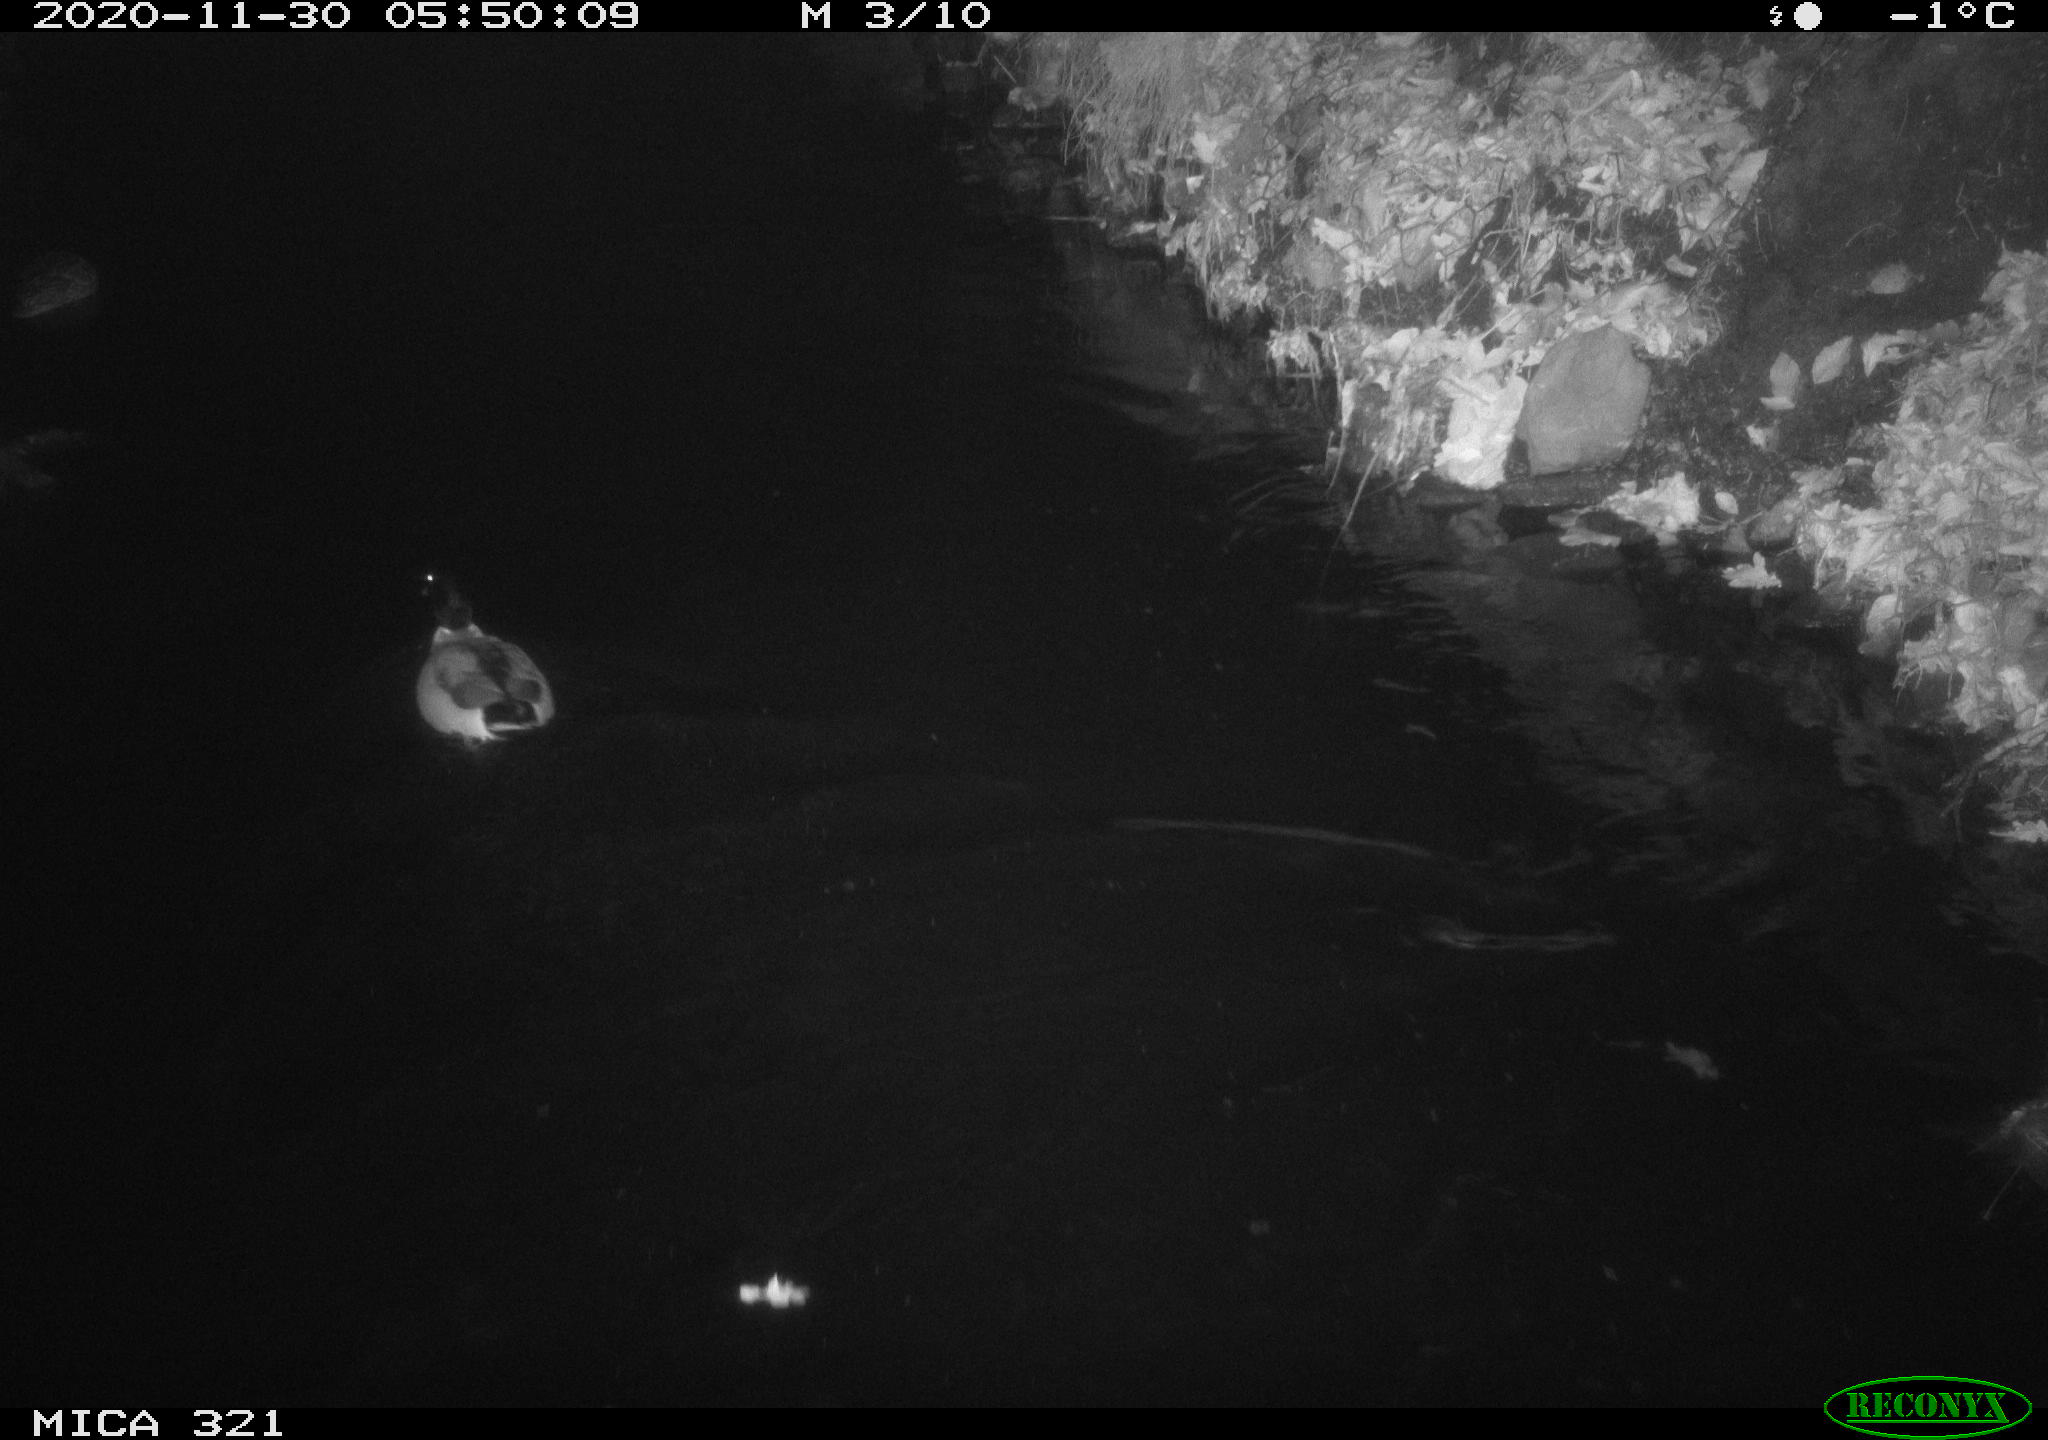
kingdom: Animalia
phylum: Chordata
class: Aves
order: Anseriformes
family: Anatidae
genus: Anas
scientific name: Anas platyrhynchos
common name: Mallard
